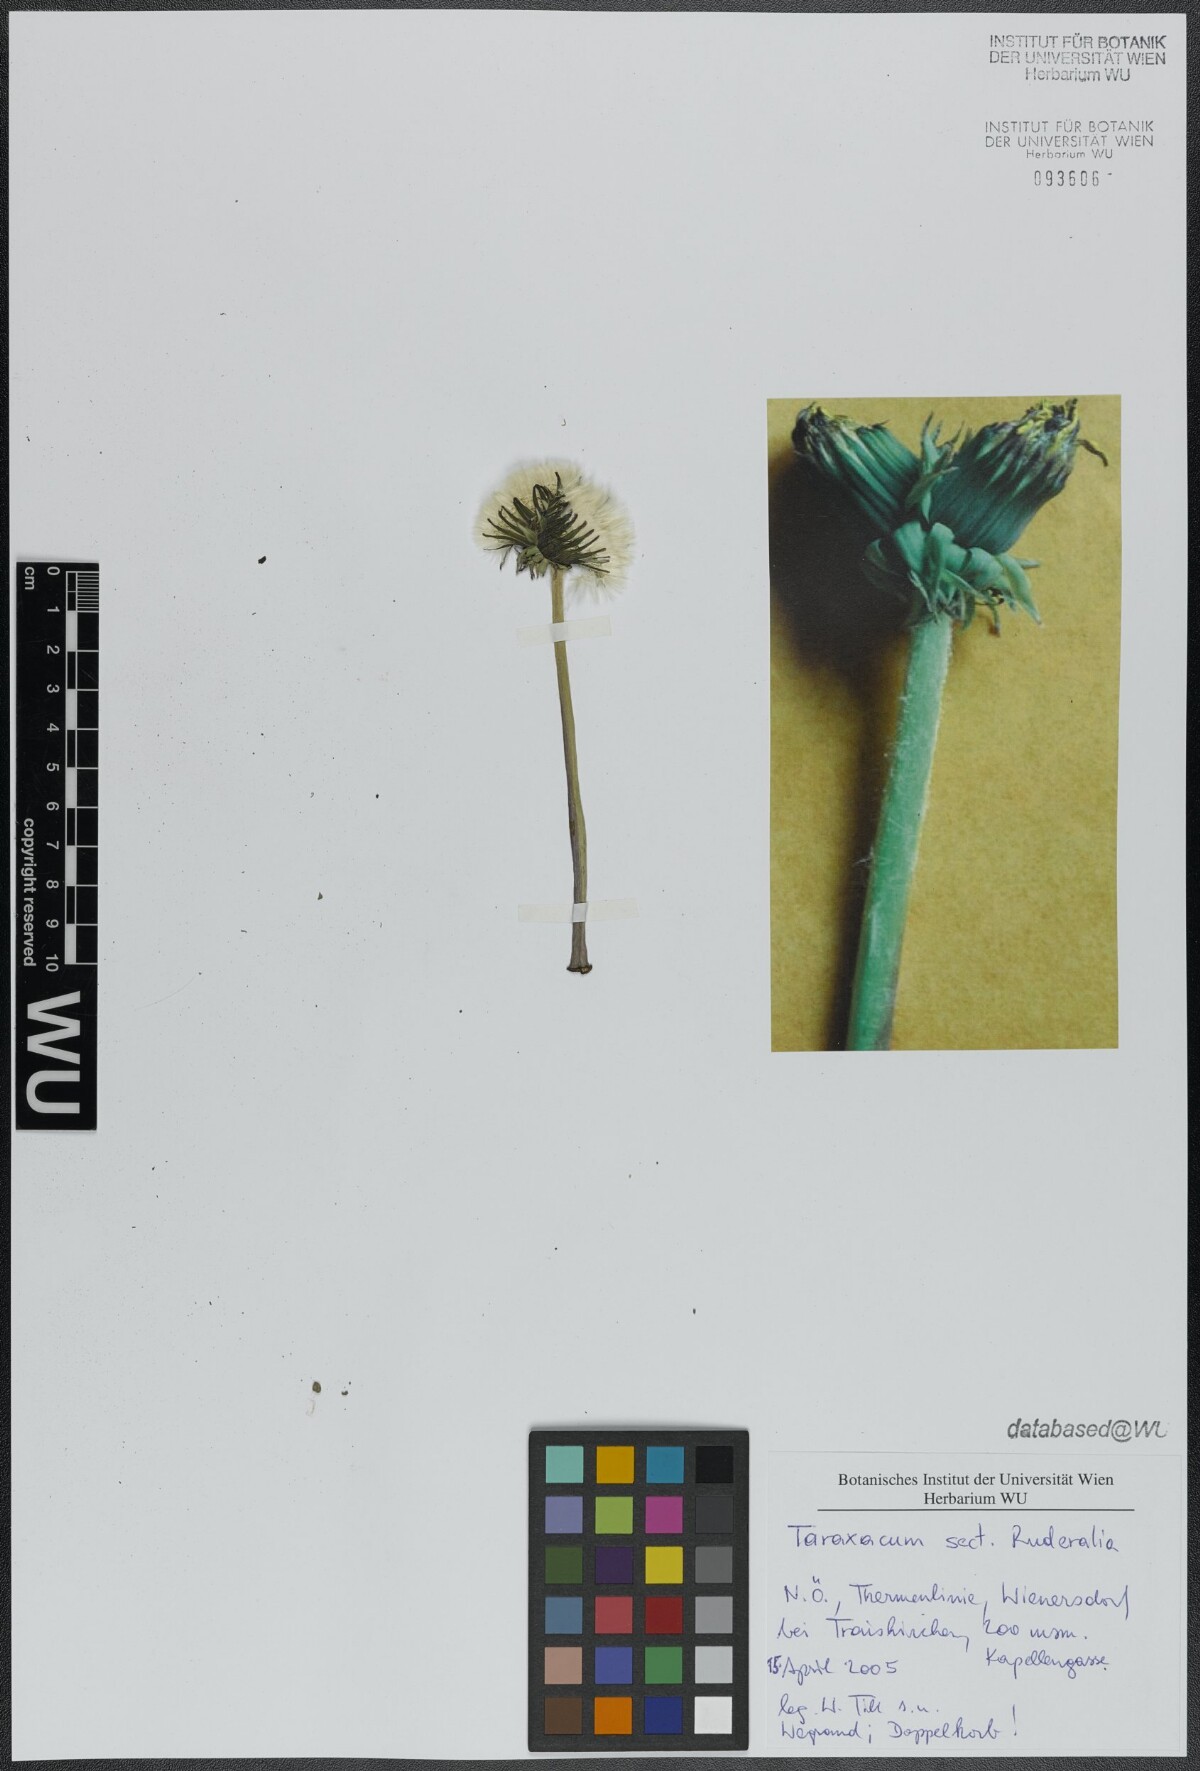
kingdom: Plantae
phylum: Tracheophyta
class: Magnoliopsida
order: Asterales
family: Asteraceae
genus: Taraxacum
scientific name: Taraxacum
